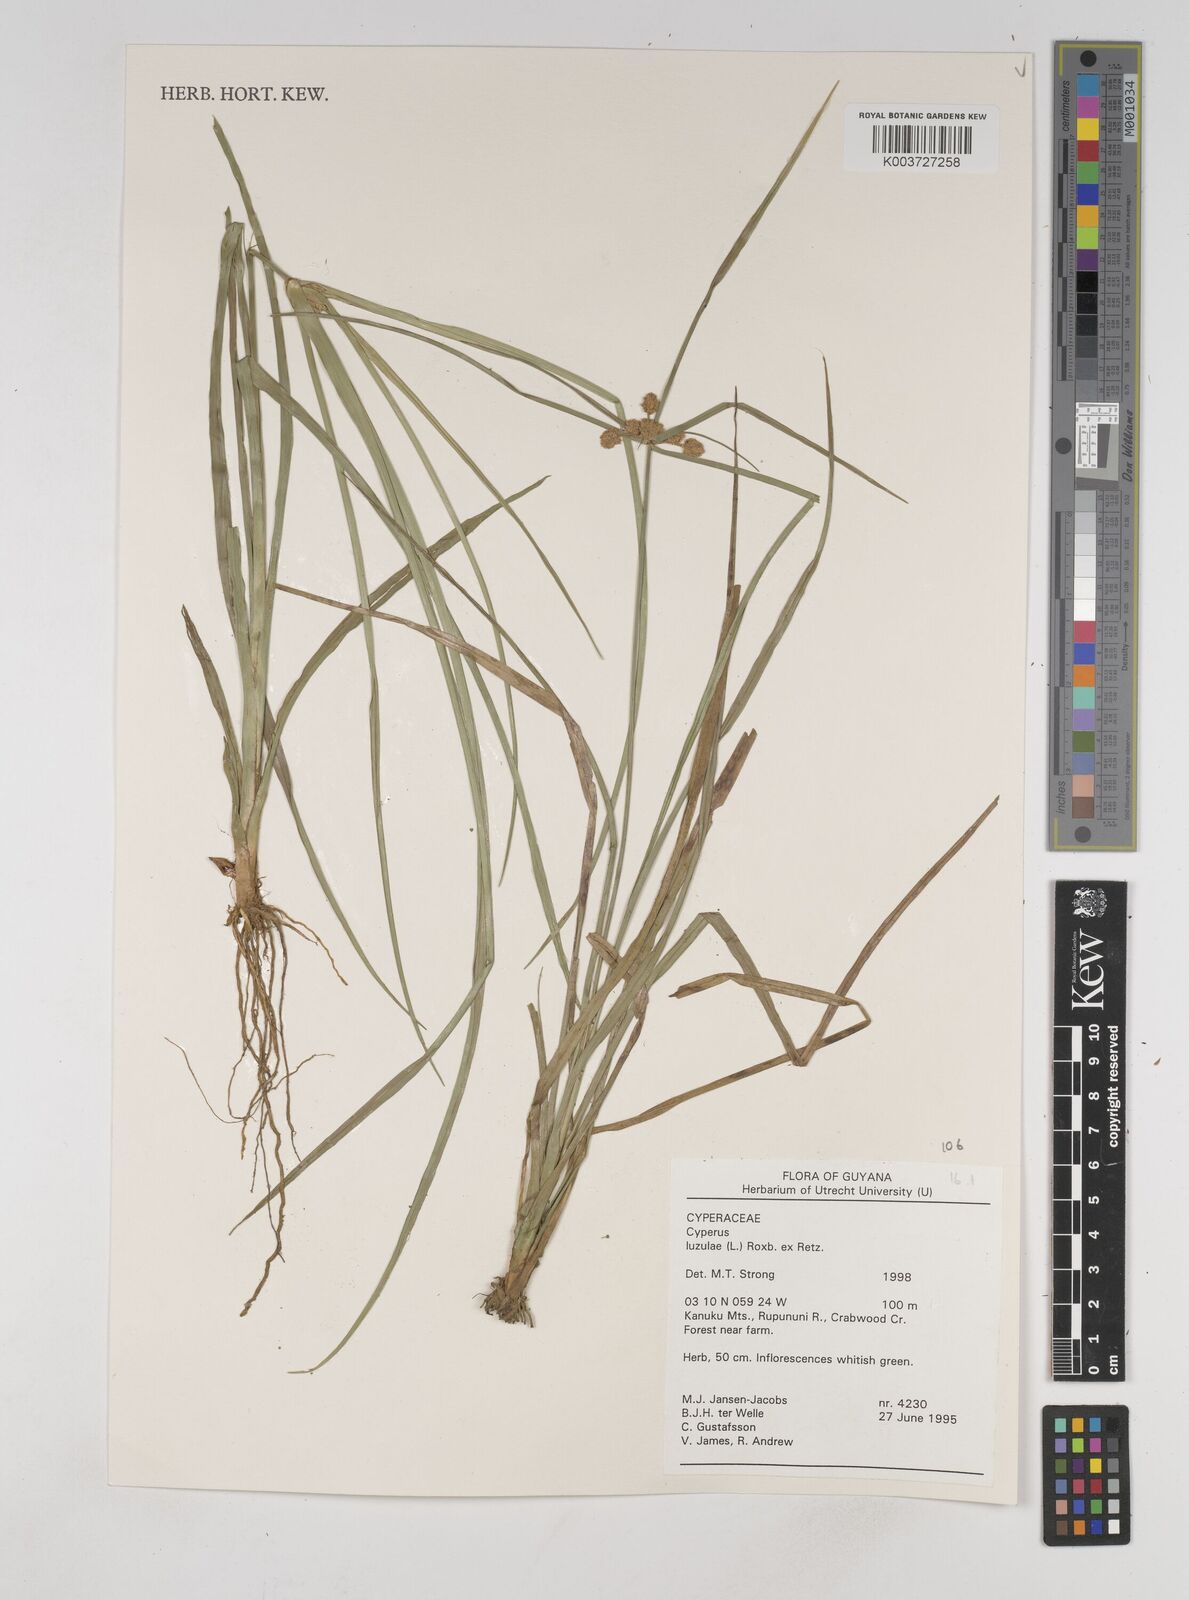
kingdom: Plantae
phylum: Tracheophyta
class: Liliopsida
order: Poales
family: Cyperaceae
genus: Cyperus
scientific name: Cyperus luzulae
